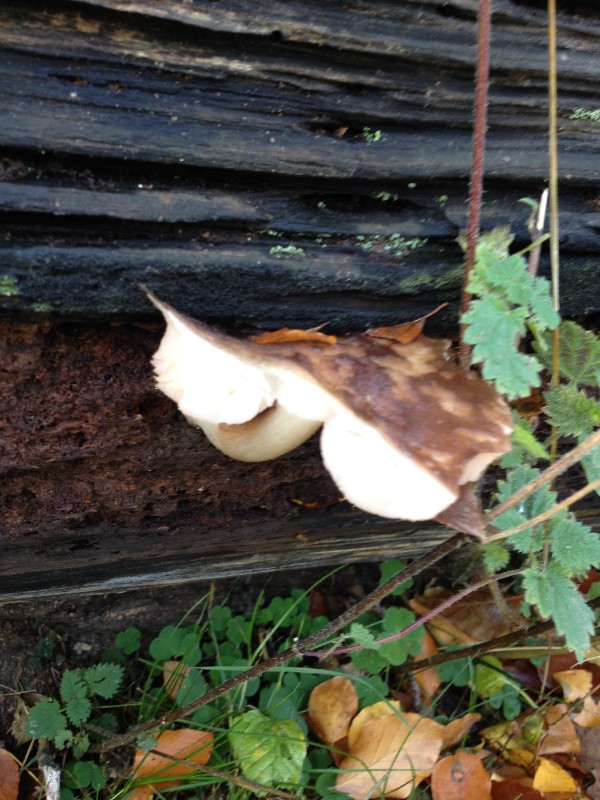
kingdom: Fungi
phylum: Basidiomycota
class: Agaricomycetes
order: Agaricales
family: Pluteaceae
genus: Pluteus
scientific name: Pluteus cervinus
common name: sodfarvet skærmhat
